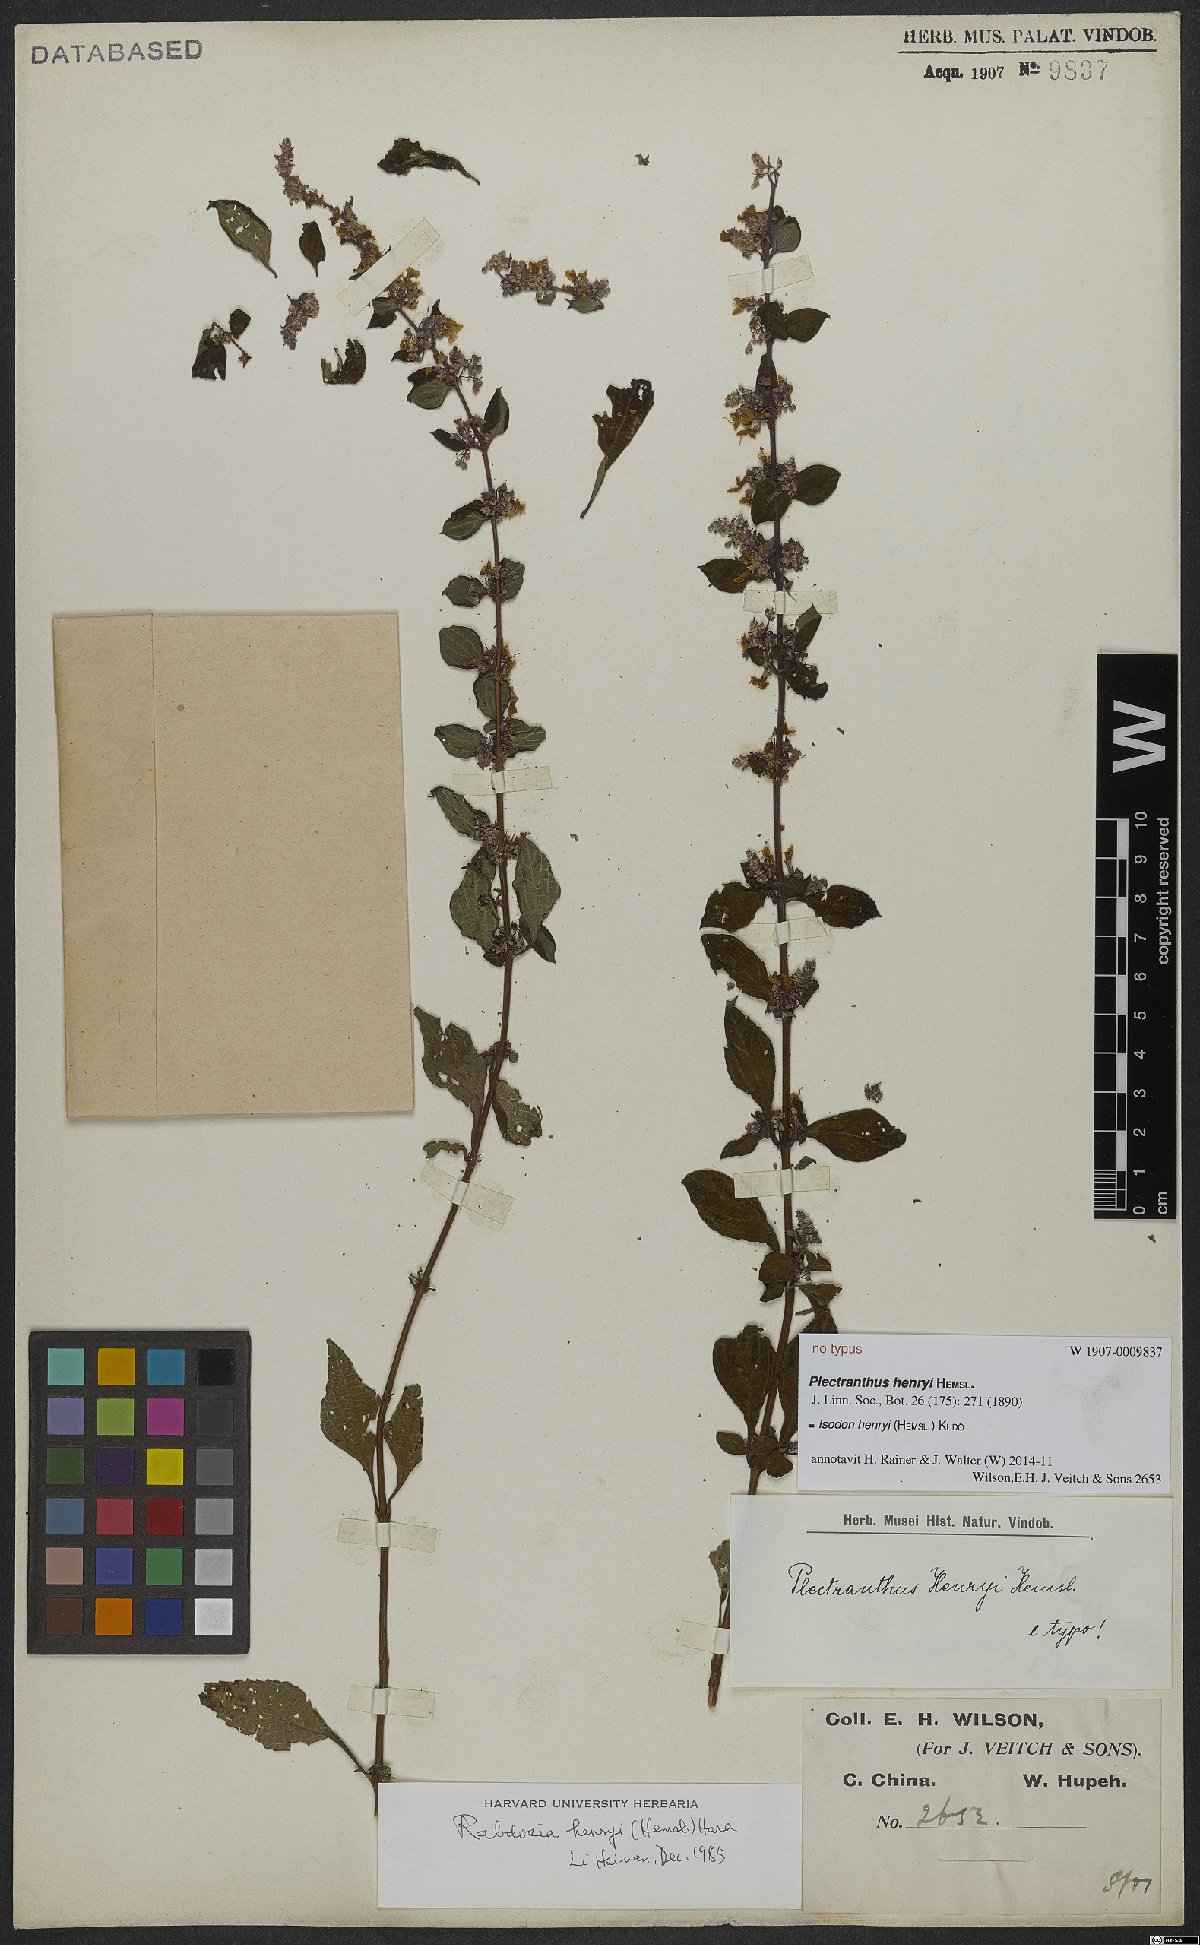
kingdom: Plantae
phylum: Tracheophyta
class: Magnoliopsida
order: Lamiales
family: Lamiaceae
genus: Isodon
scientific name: Isodon henryi
